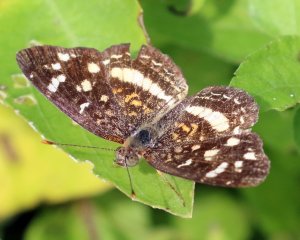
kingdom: Animalia
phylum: Arthropoda
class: Insecta
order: Lepidoptera
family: Nymphalidae
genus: Anthanassa
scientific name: Anthanassa tulcis
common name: Pale-banded Crescent
